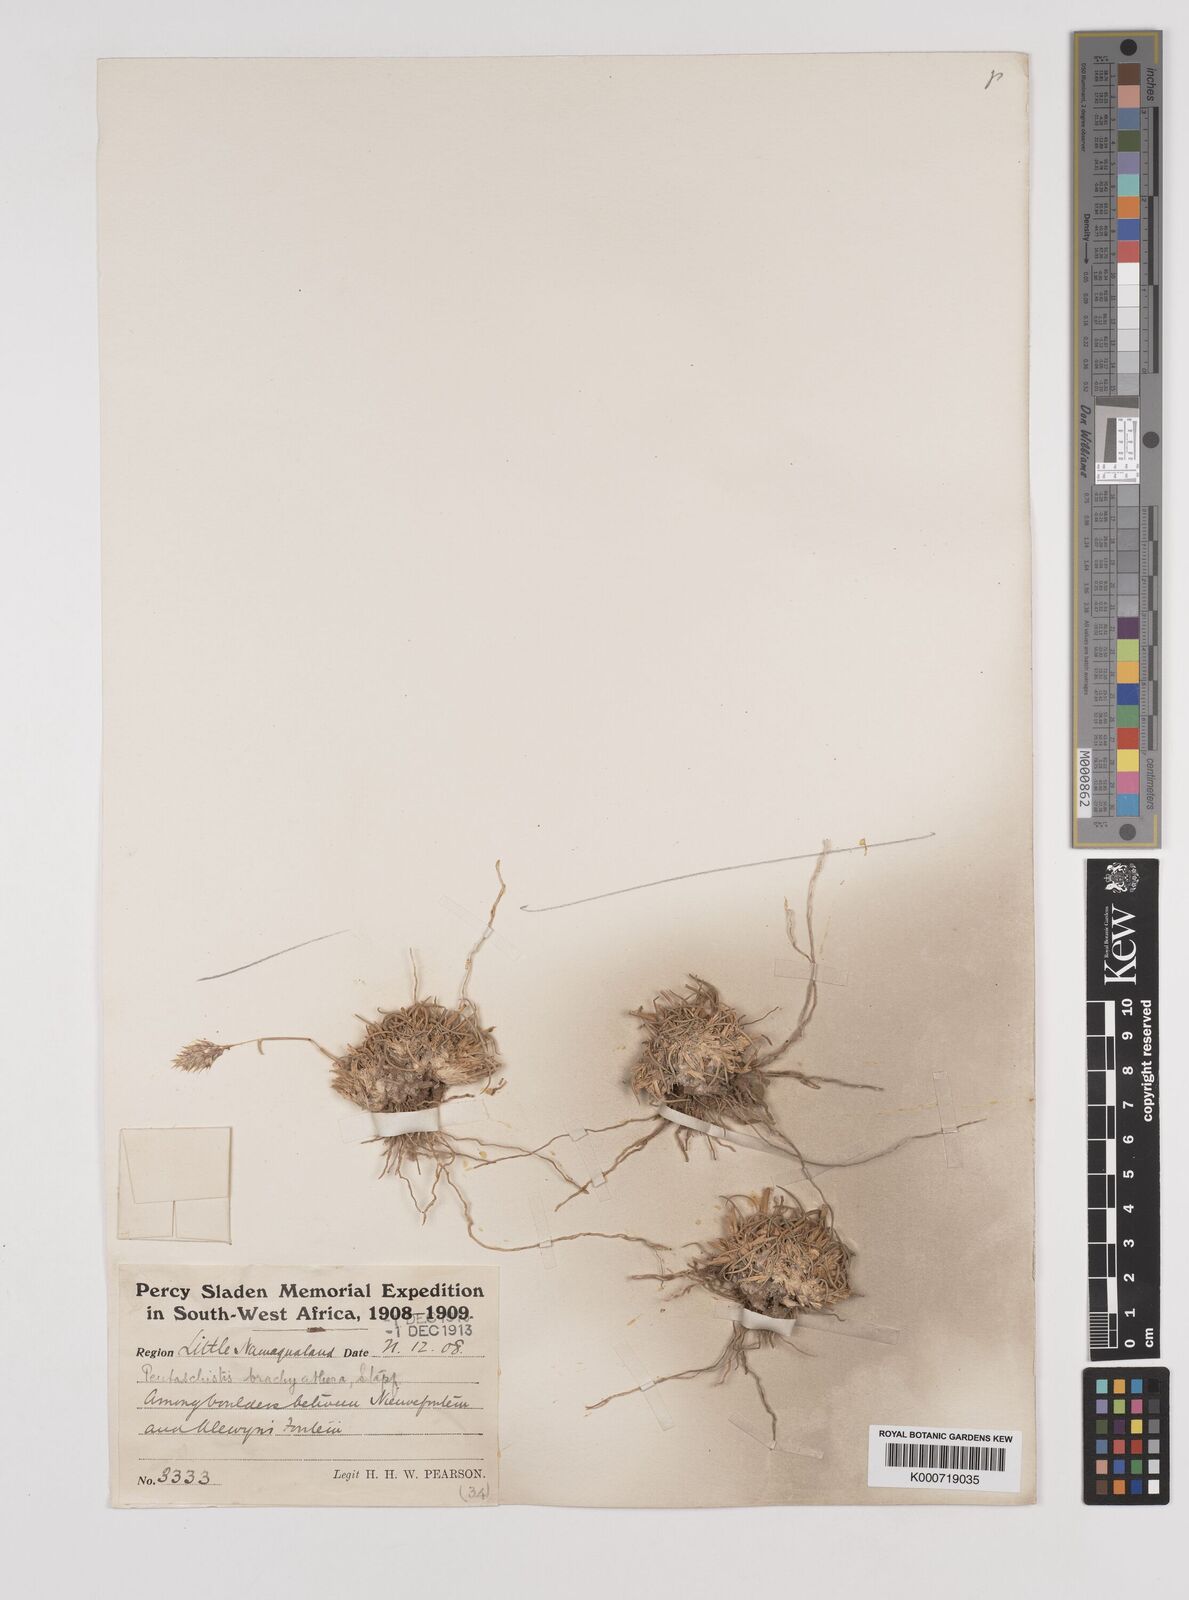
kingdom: Plantae
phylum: Tracheophyta
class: Liliopsida
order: Poales
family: Poaceae
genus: Pentameris
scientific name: Pentameris pallida
